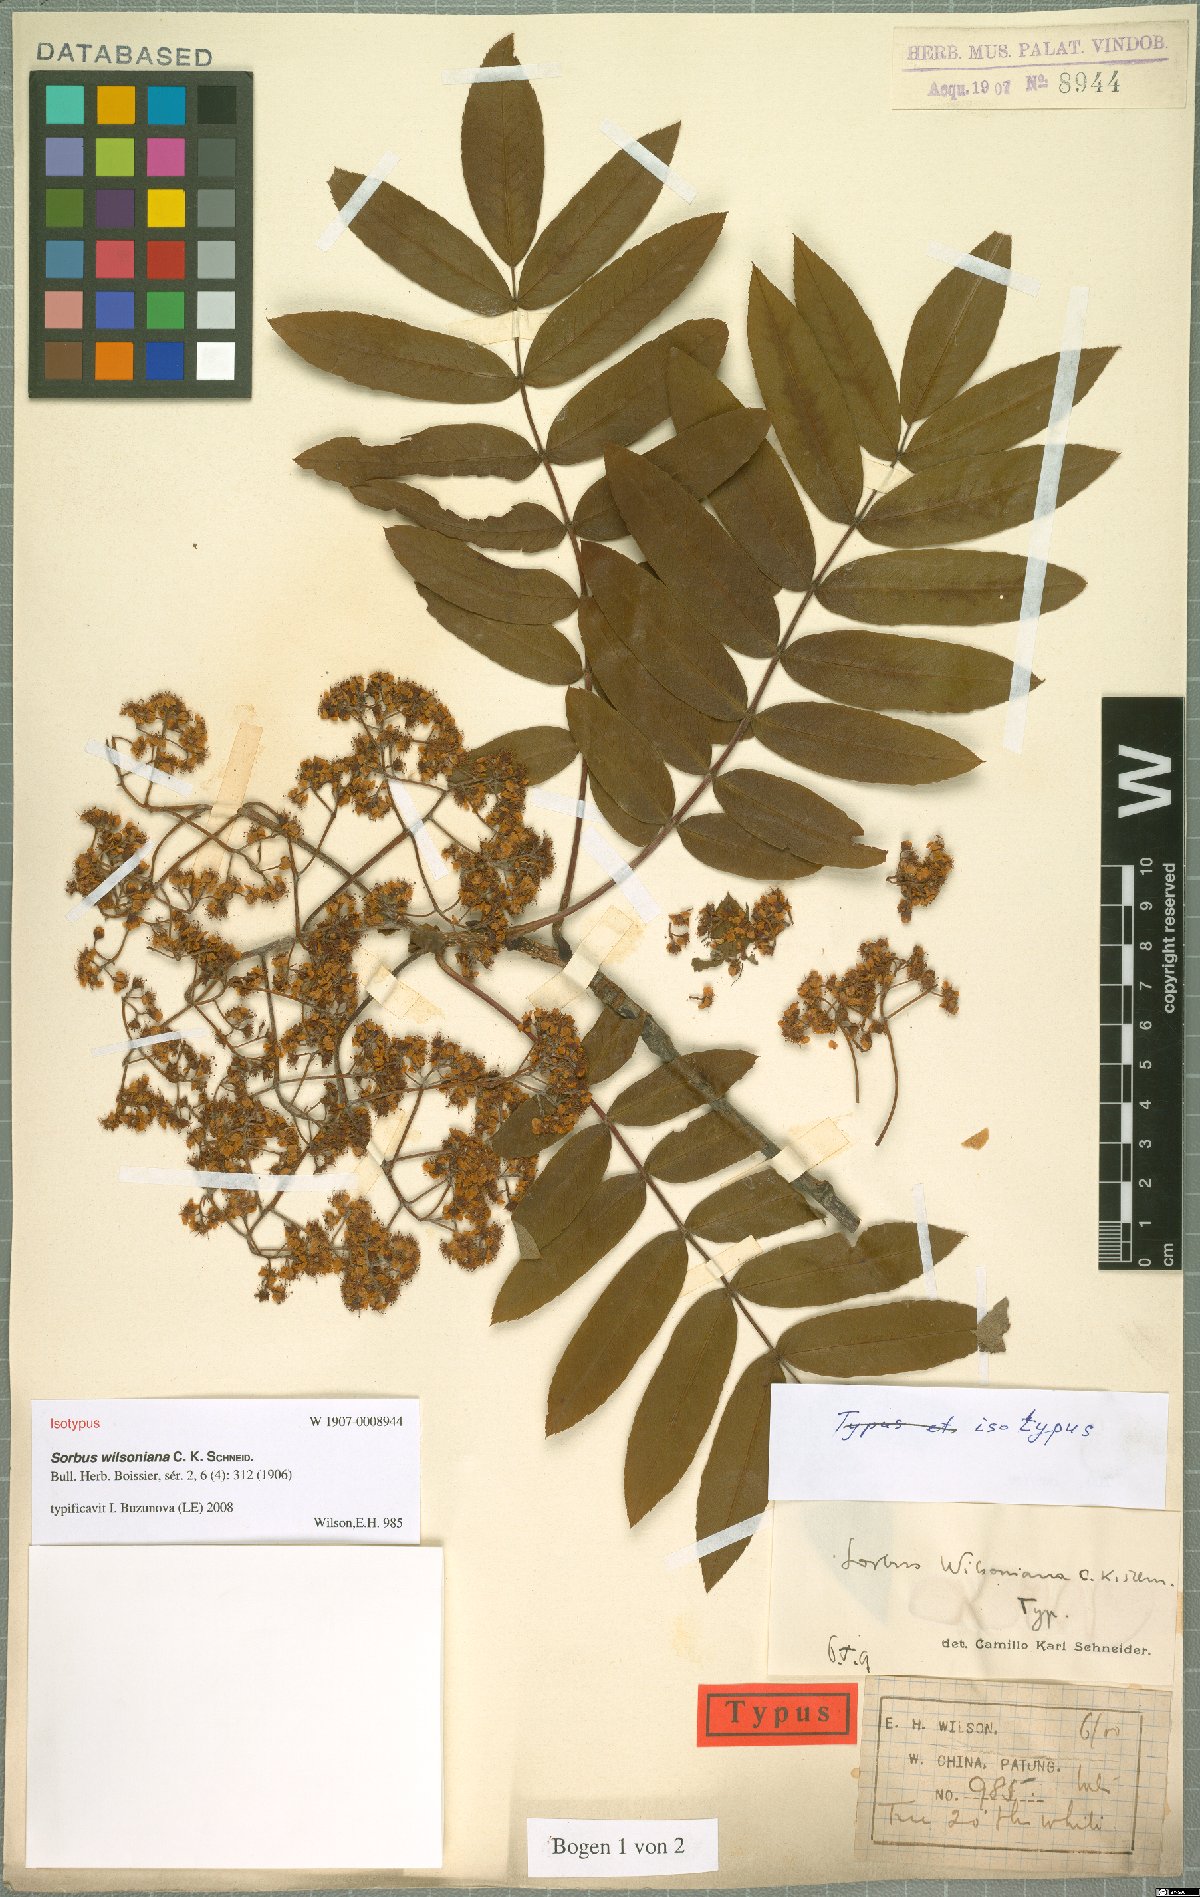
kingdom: Plantae
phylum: Tracheophyta
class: Magnoliopsida
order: Rosales
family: Rosaceae
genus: Sorbus
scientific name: Sorbus wilsoniana
